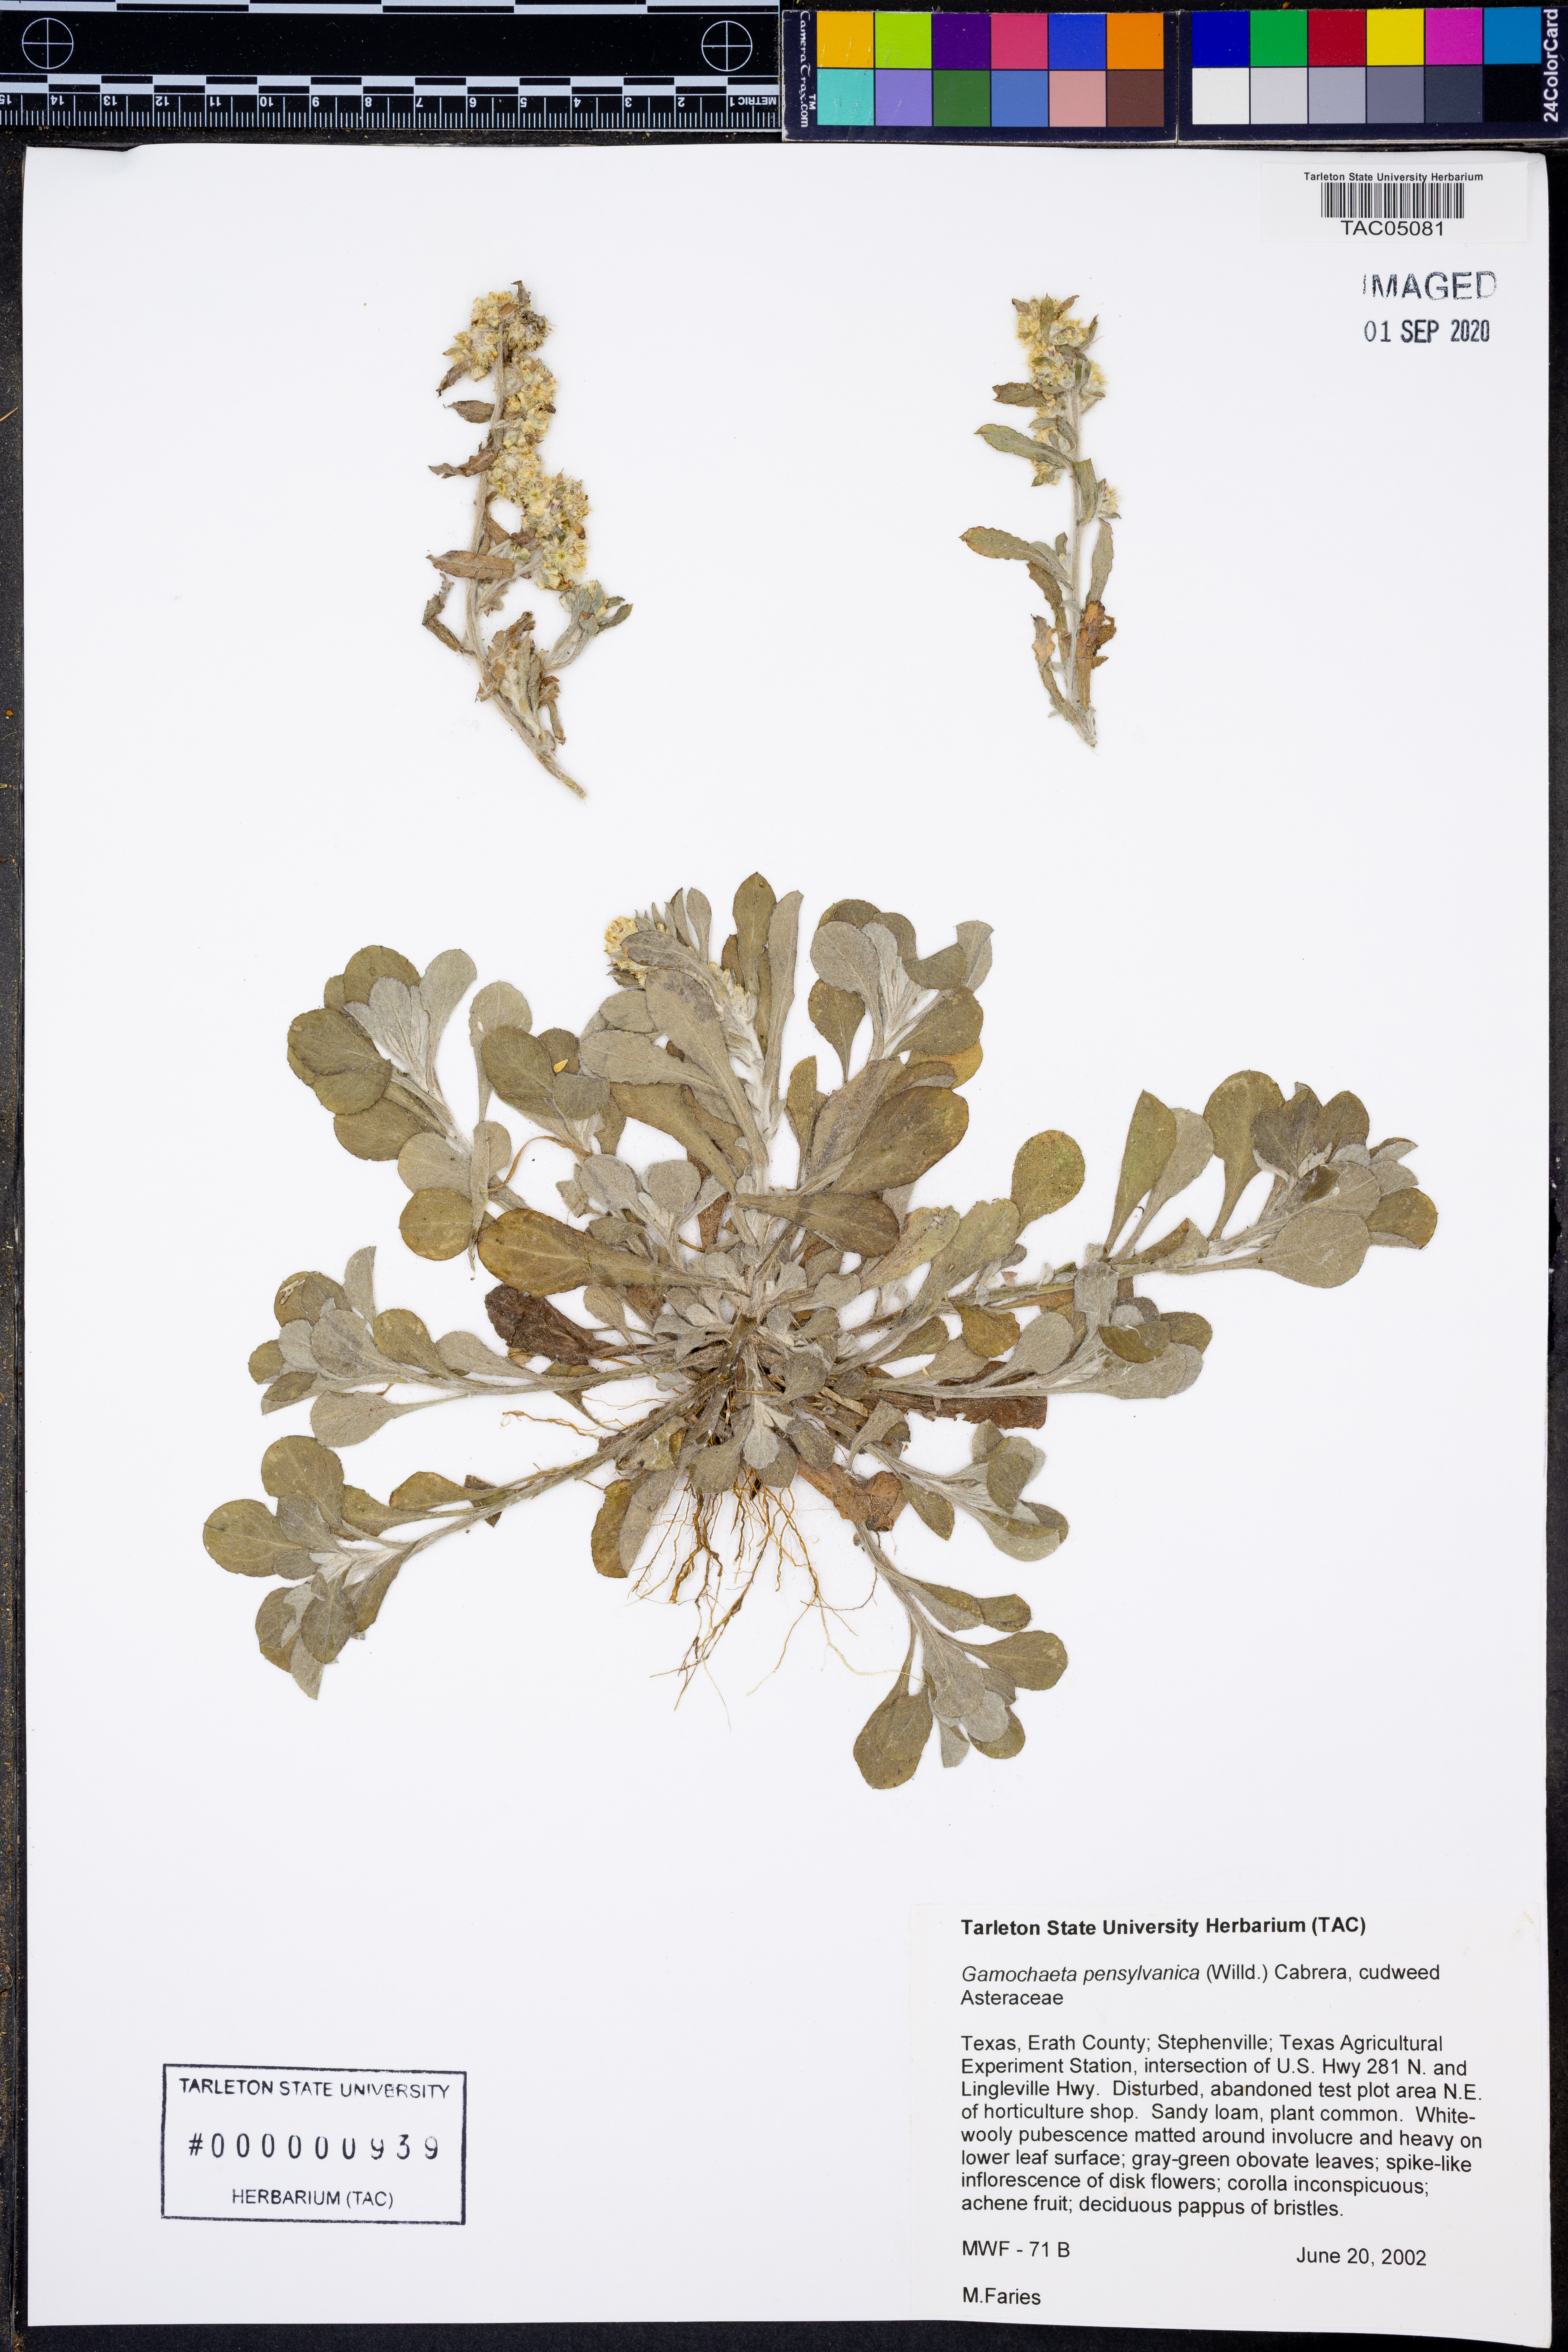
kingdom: Plantae
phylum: Tracheophyta
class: Magnoliopsida
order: Asterales
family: Asteraceae
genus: Gamochaeta
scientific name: Gamochaeta pensylvanica
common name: Pennsylvania everlasting
